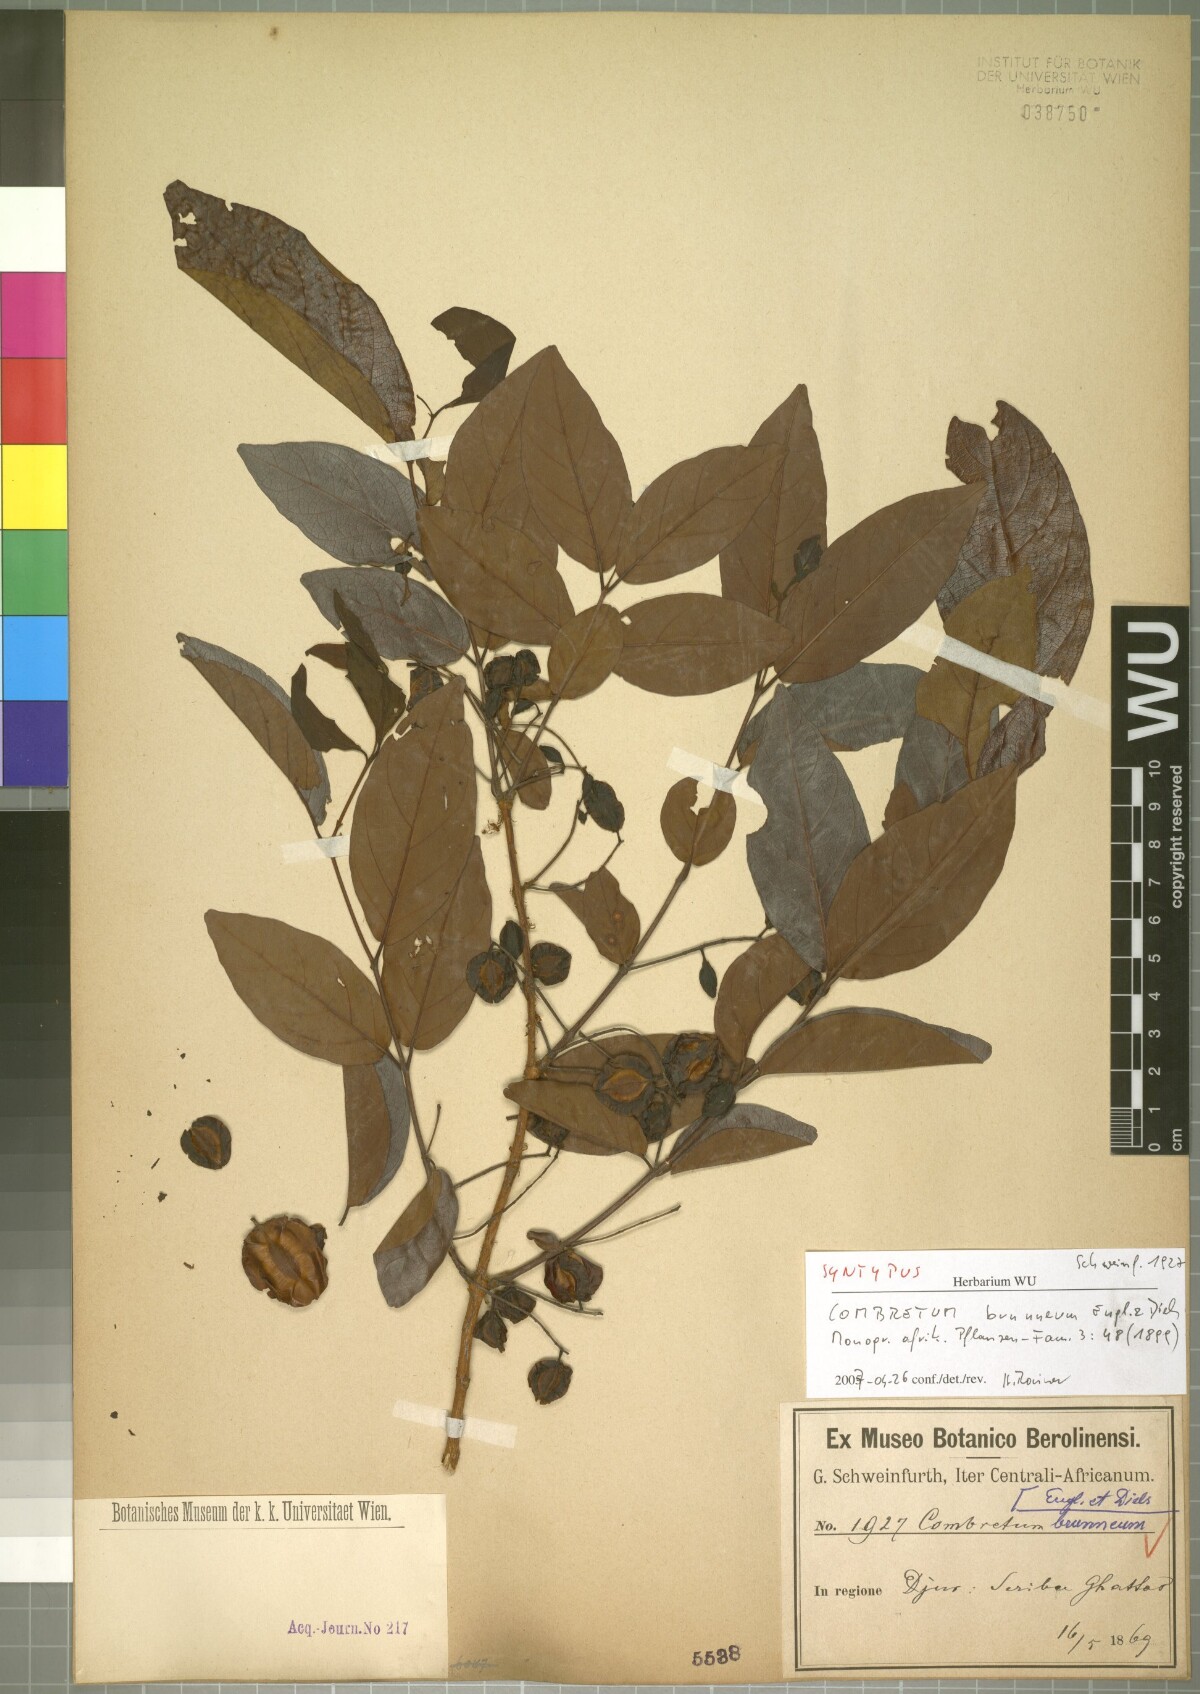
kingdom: Plantae
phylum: Tracheophyta
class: Magnoliopsida
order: Myrtales
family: Combretaceae
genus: Combretum
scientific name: Combretum brunneum
